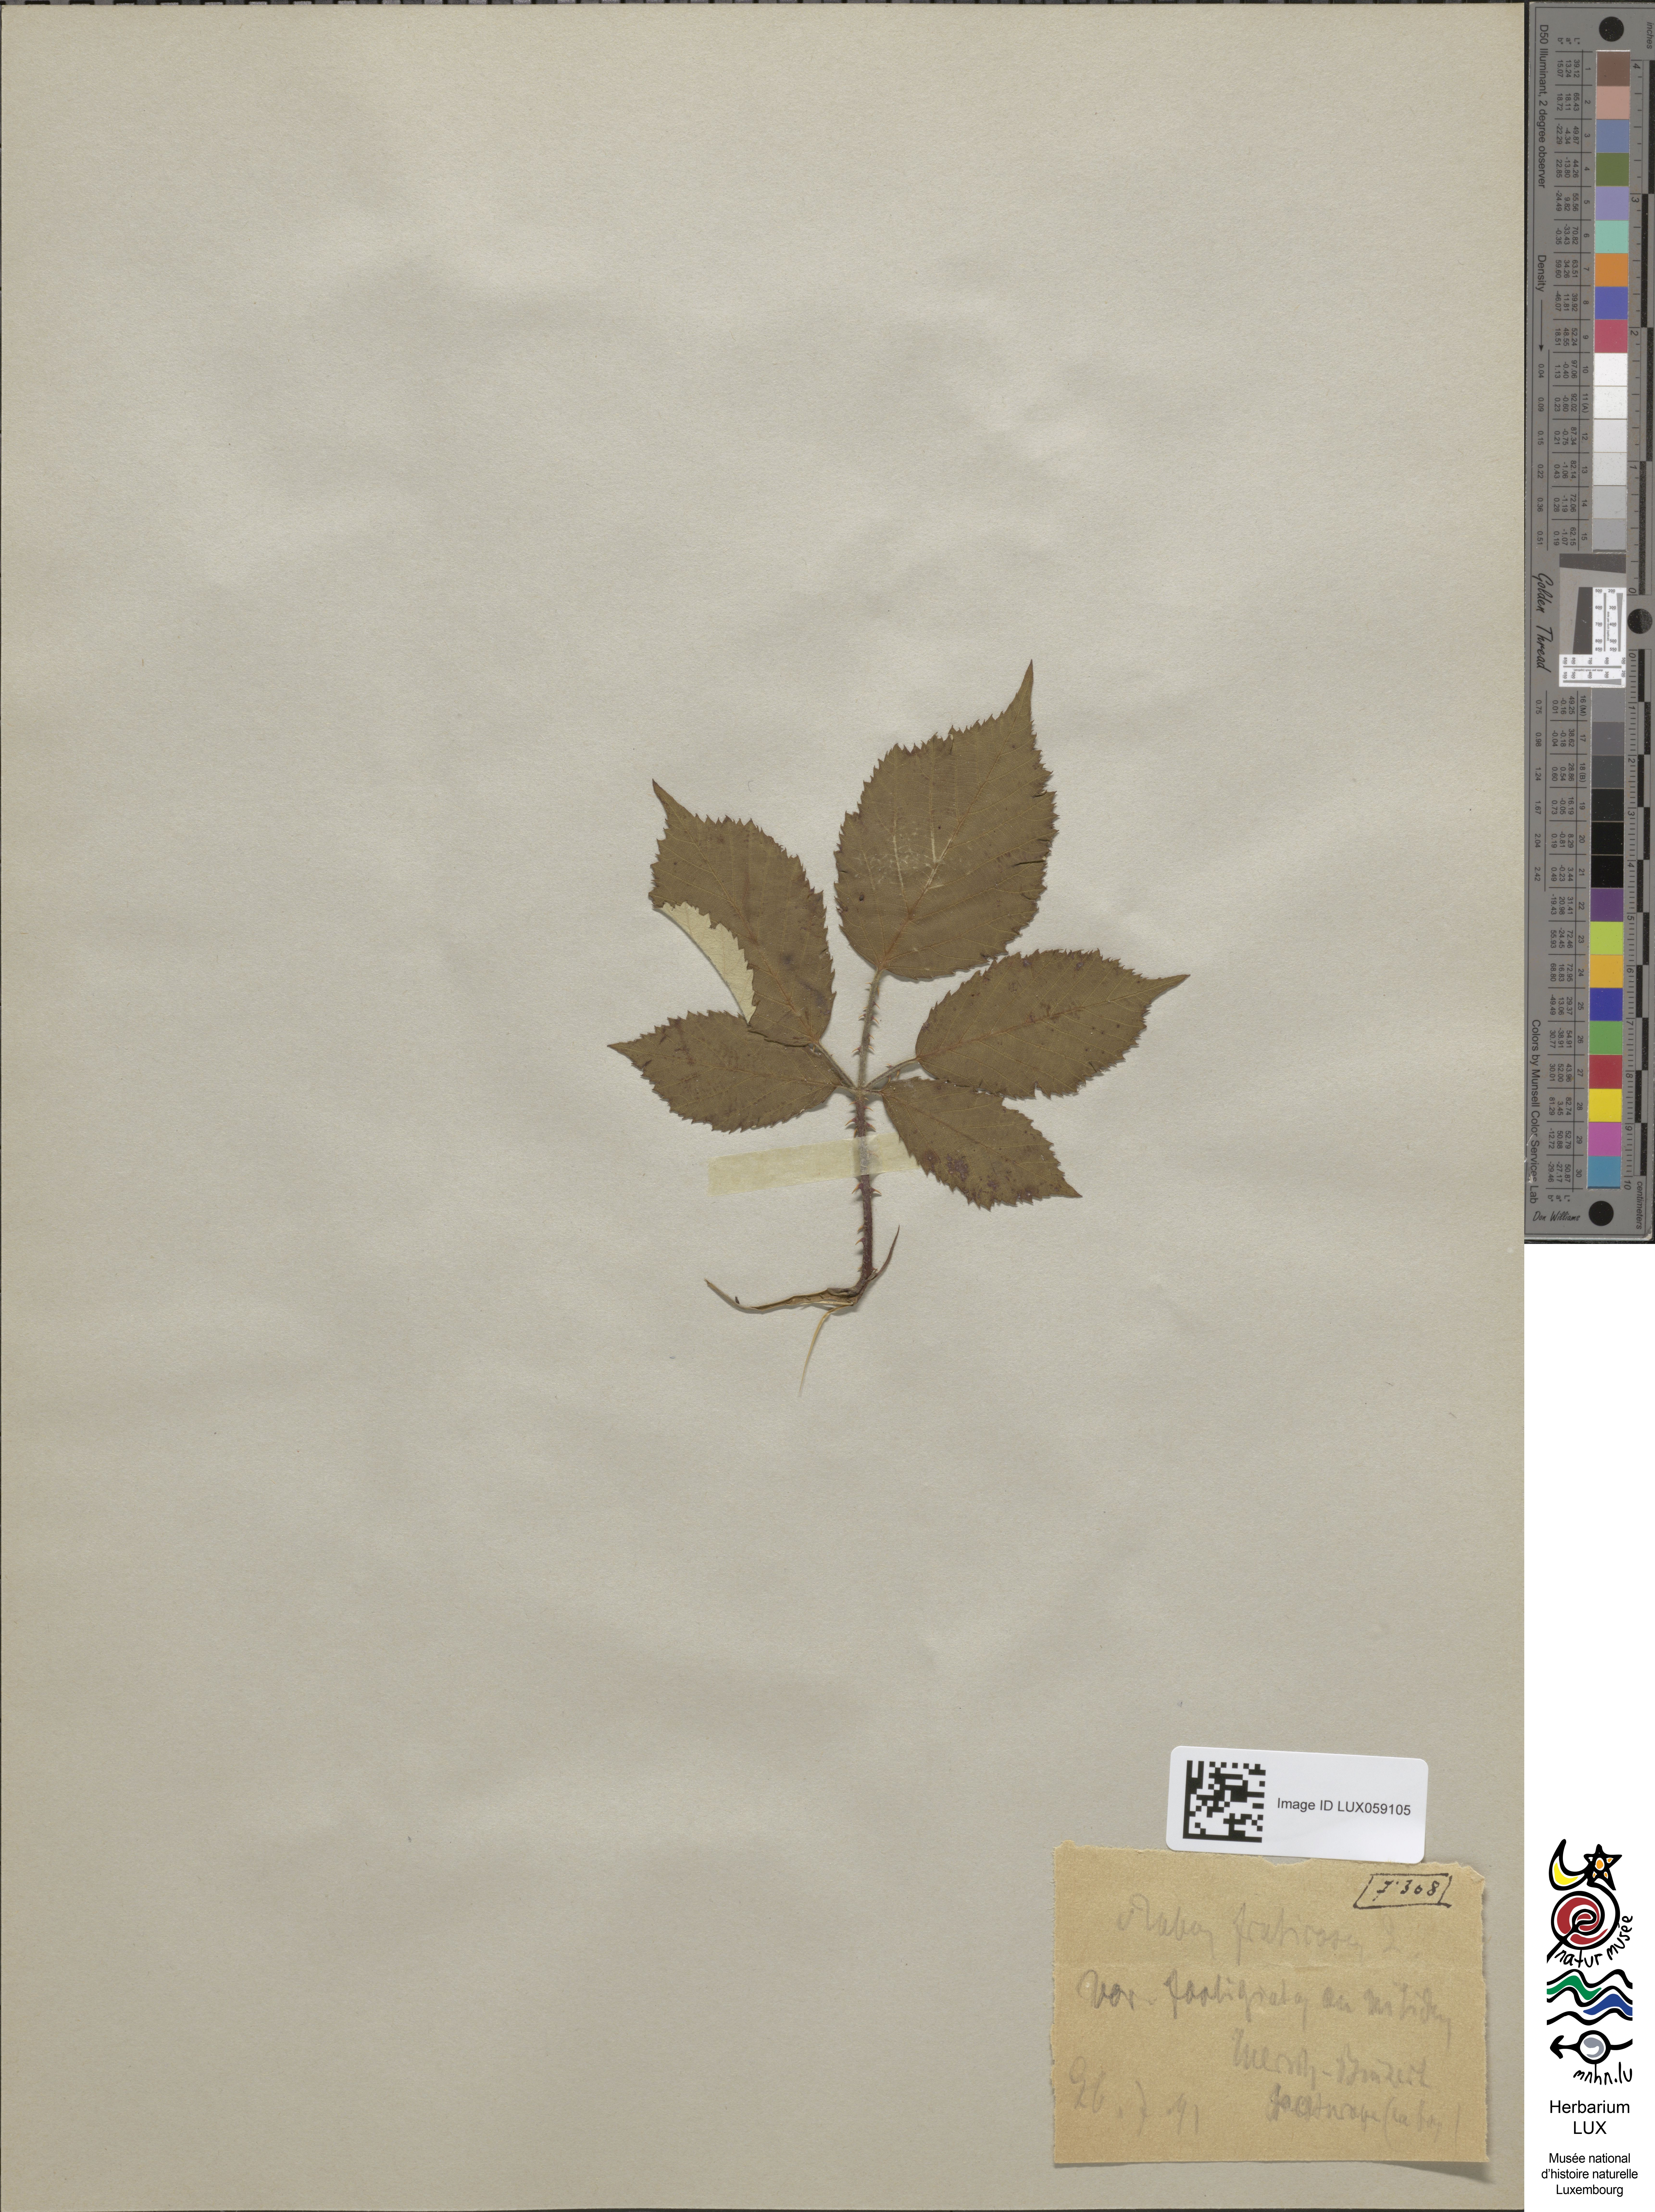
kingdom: Plantae
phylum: Tracheophyta
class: Magnoliopsida
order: Rosales
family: Rosaceae
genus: Rubus
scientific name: Rubus fruticosus
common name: Blackberry, bramble
